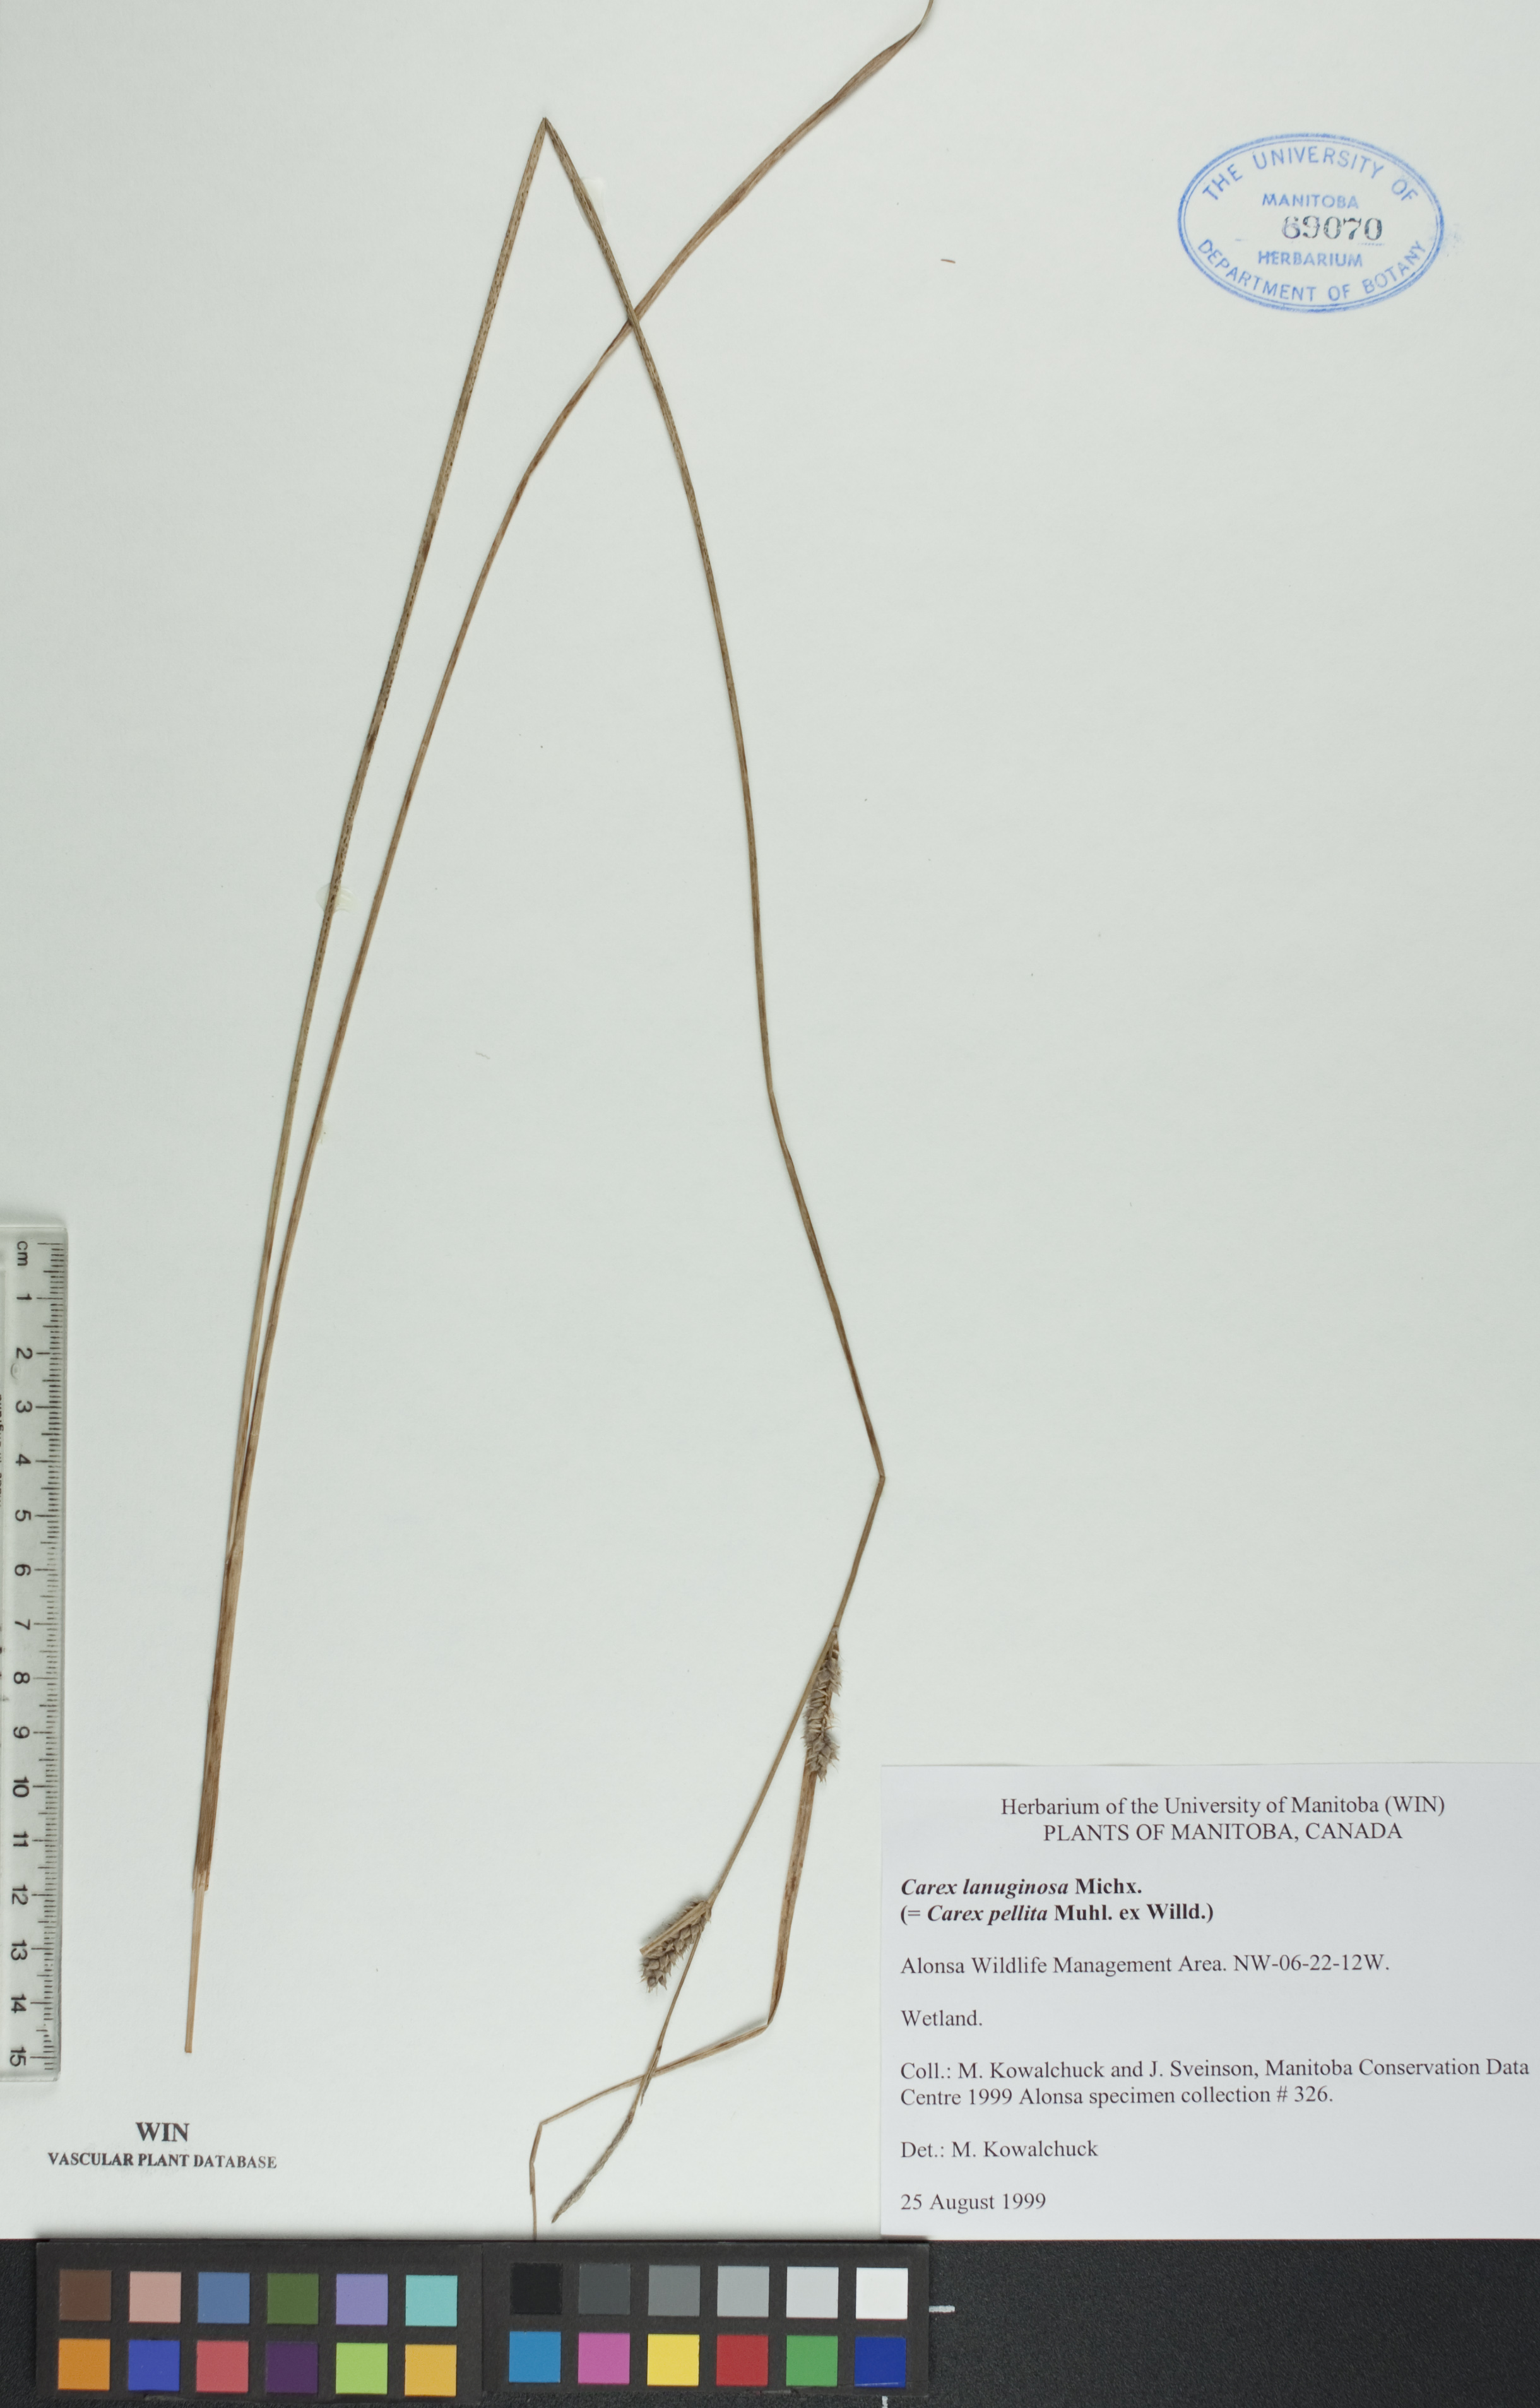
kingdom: Plantae
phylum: Tracheophyta
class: Liliopsida
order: Poales
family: Cyperaceae
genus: Carex
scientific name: Carex lasiocarpa
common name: Slender sedge
